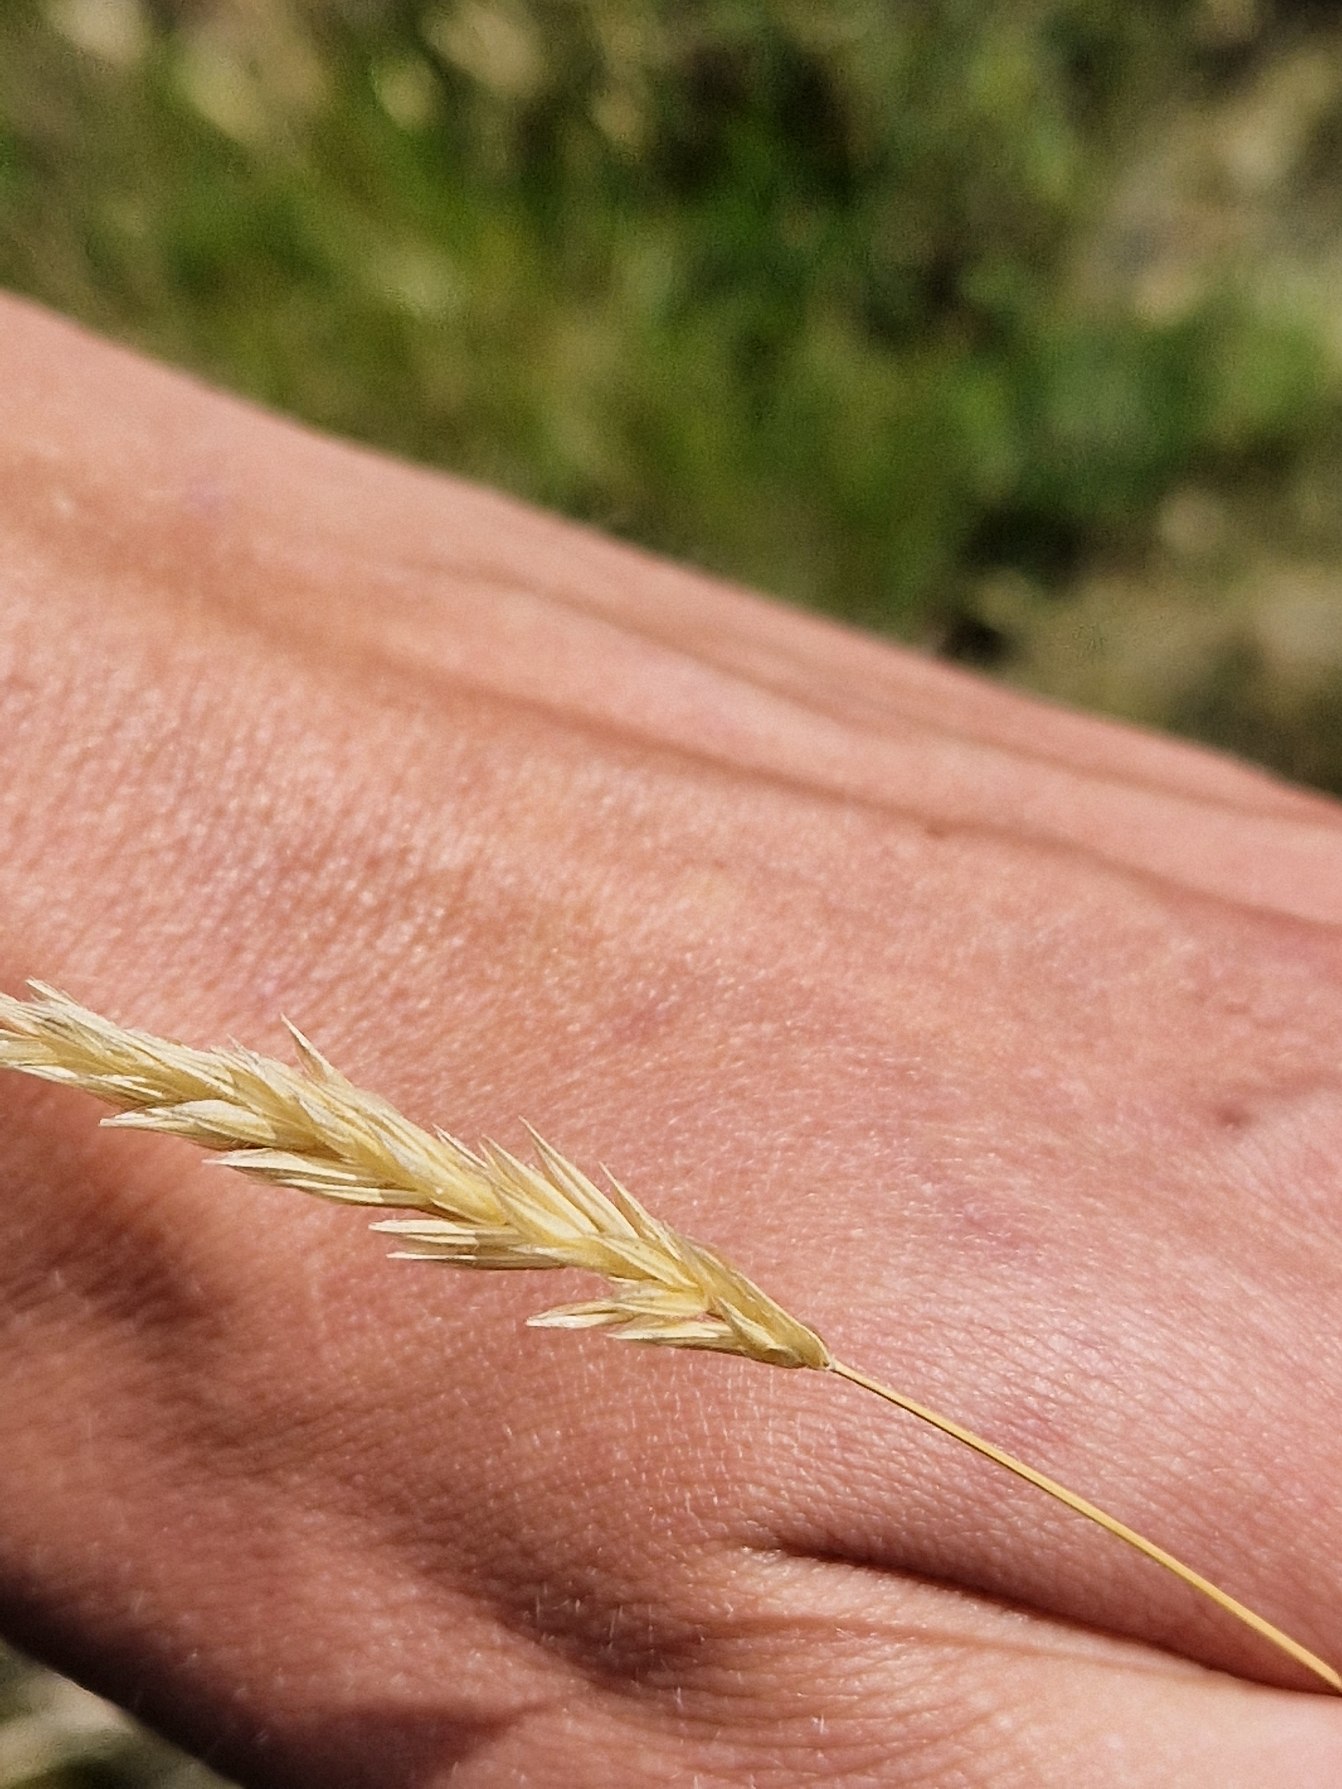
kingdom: Plantae
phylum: Tracheophyta
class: Liliopsida
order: Poales
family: Poaceae
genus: Anthoxanthum
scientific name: Anthoxanthum odoratum
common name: Vellugtende gulaks
